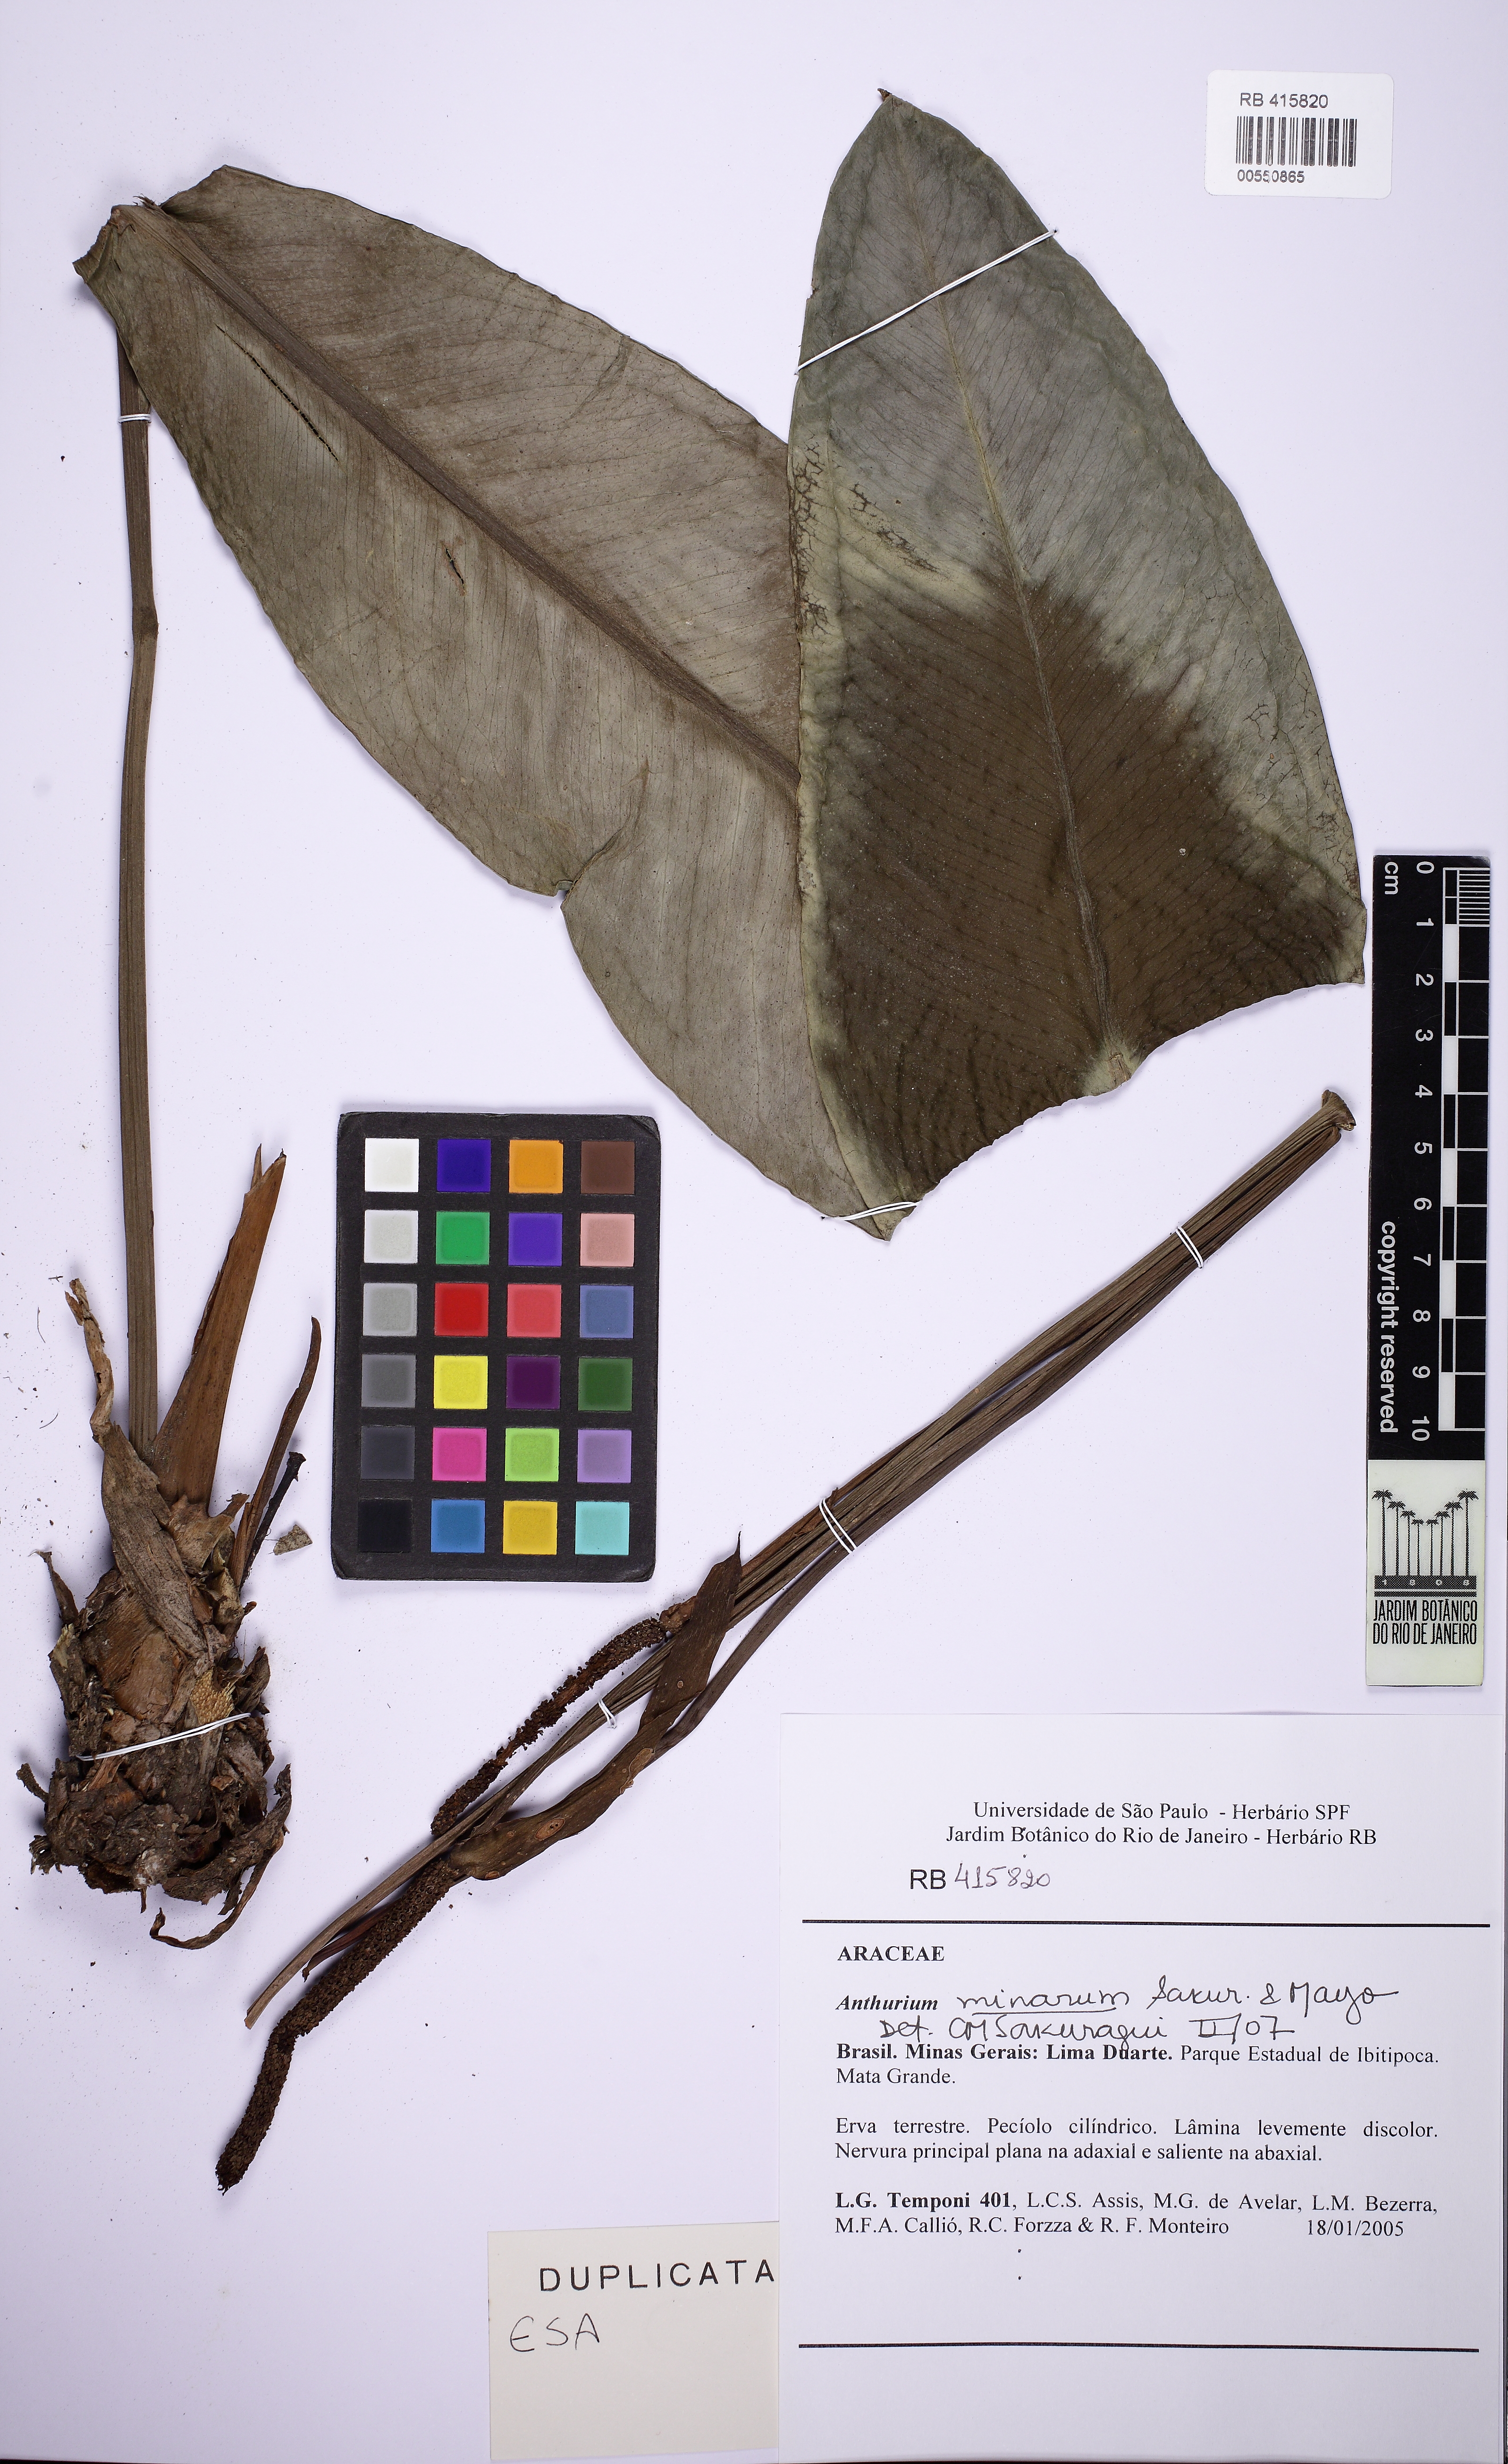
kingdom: Plantae
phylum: Tracheophyta
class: Liliopsida
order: Alismatales
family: Araceae
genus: Anthurium
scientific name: Anthurium minarum
